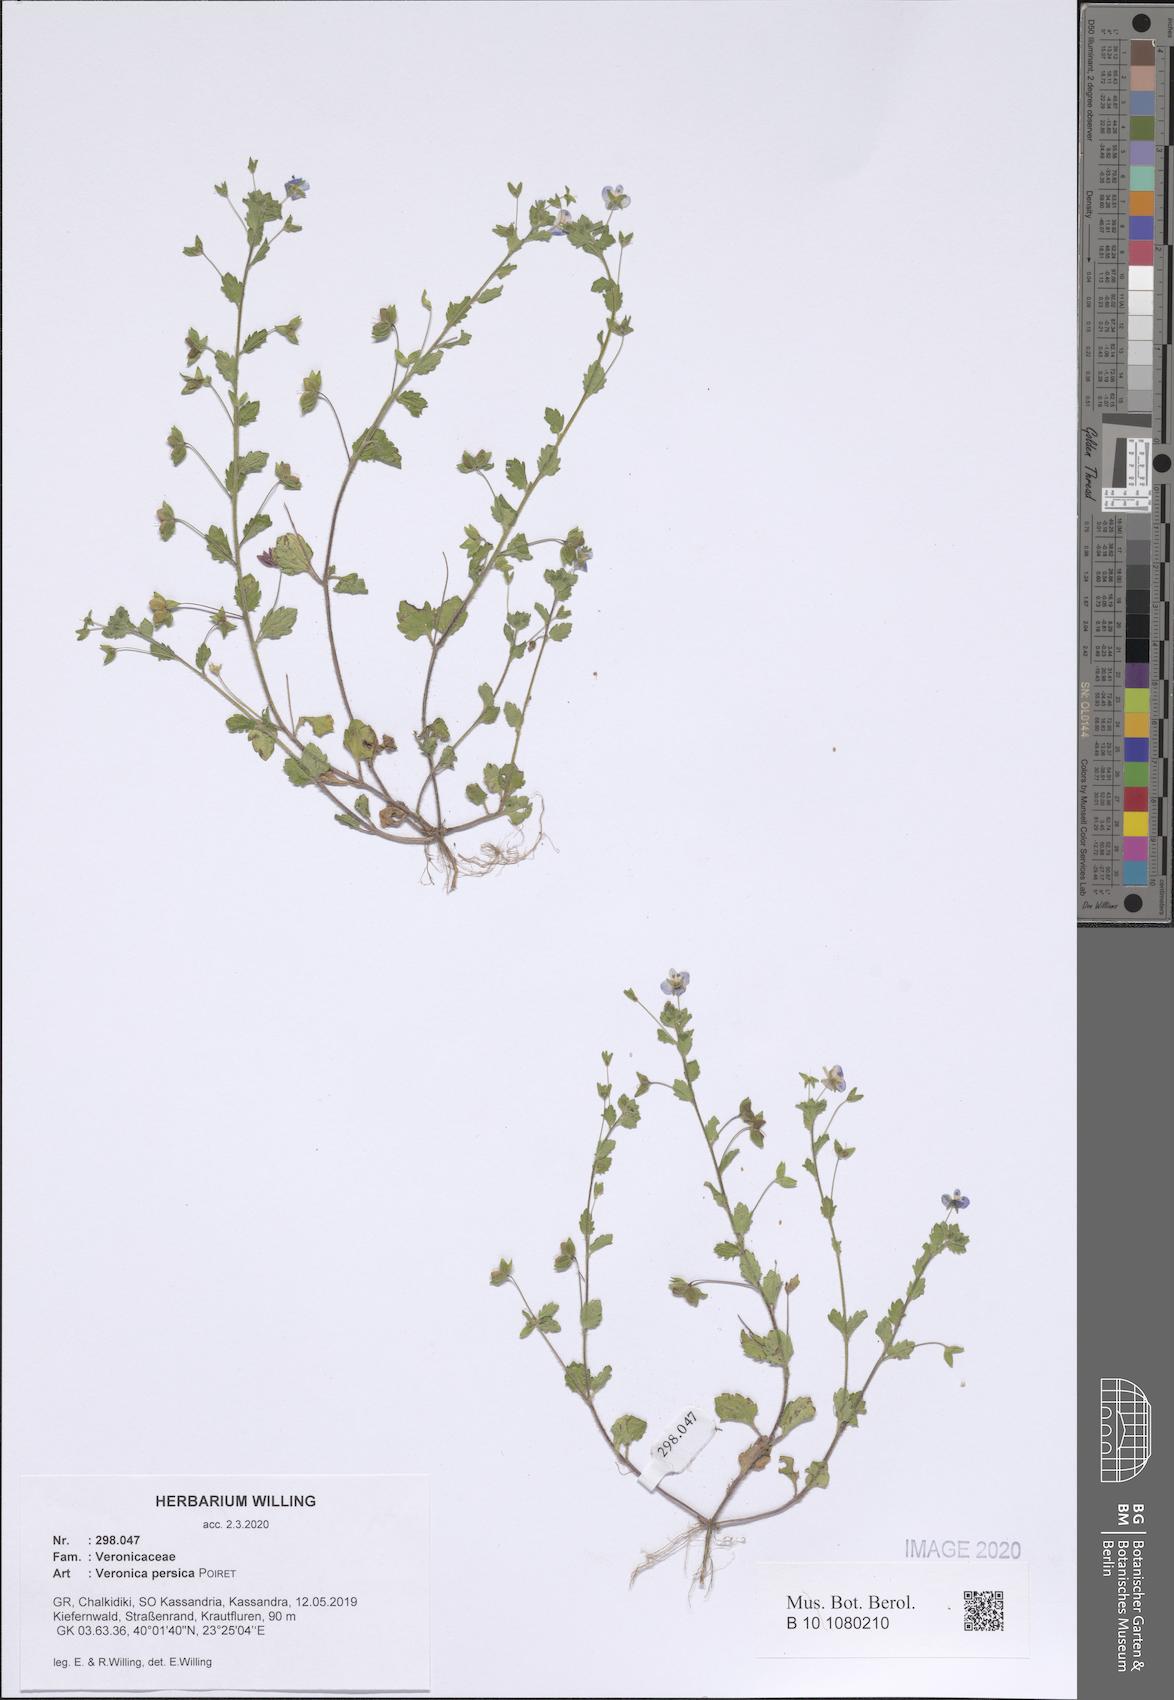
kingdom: Plantae
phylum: Tracheophyta
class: Magnoliopsida
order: Lamiales
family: Plantaginaceae
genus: Veronica
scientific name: Veronica persica
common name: Common field-speedwell
